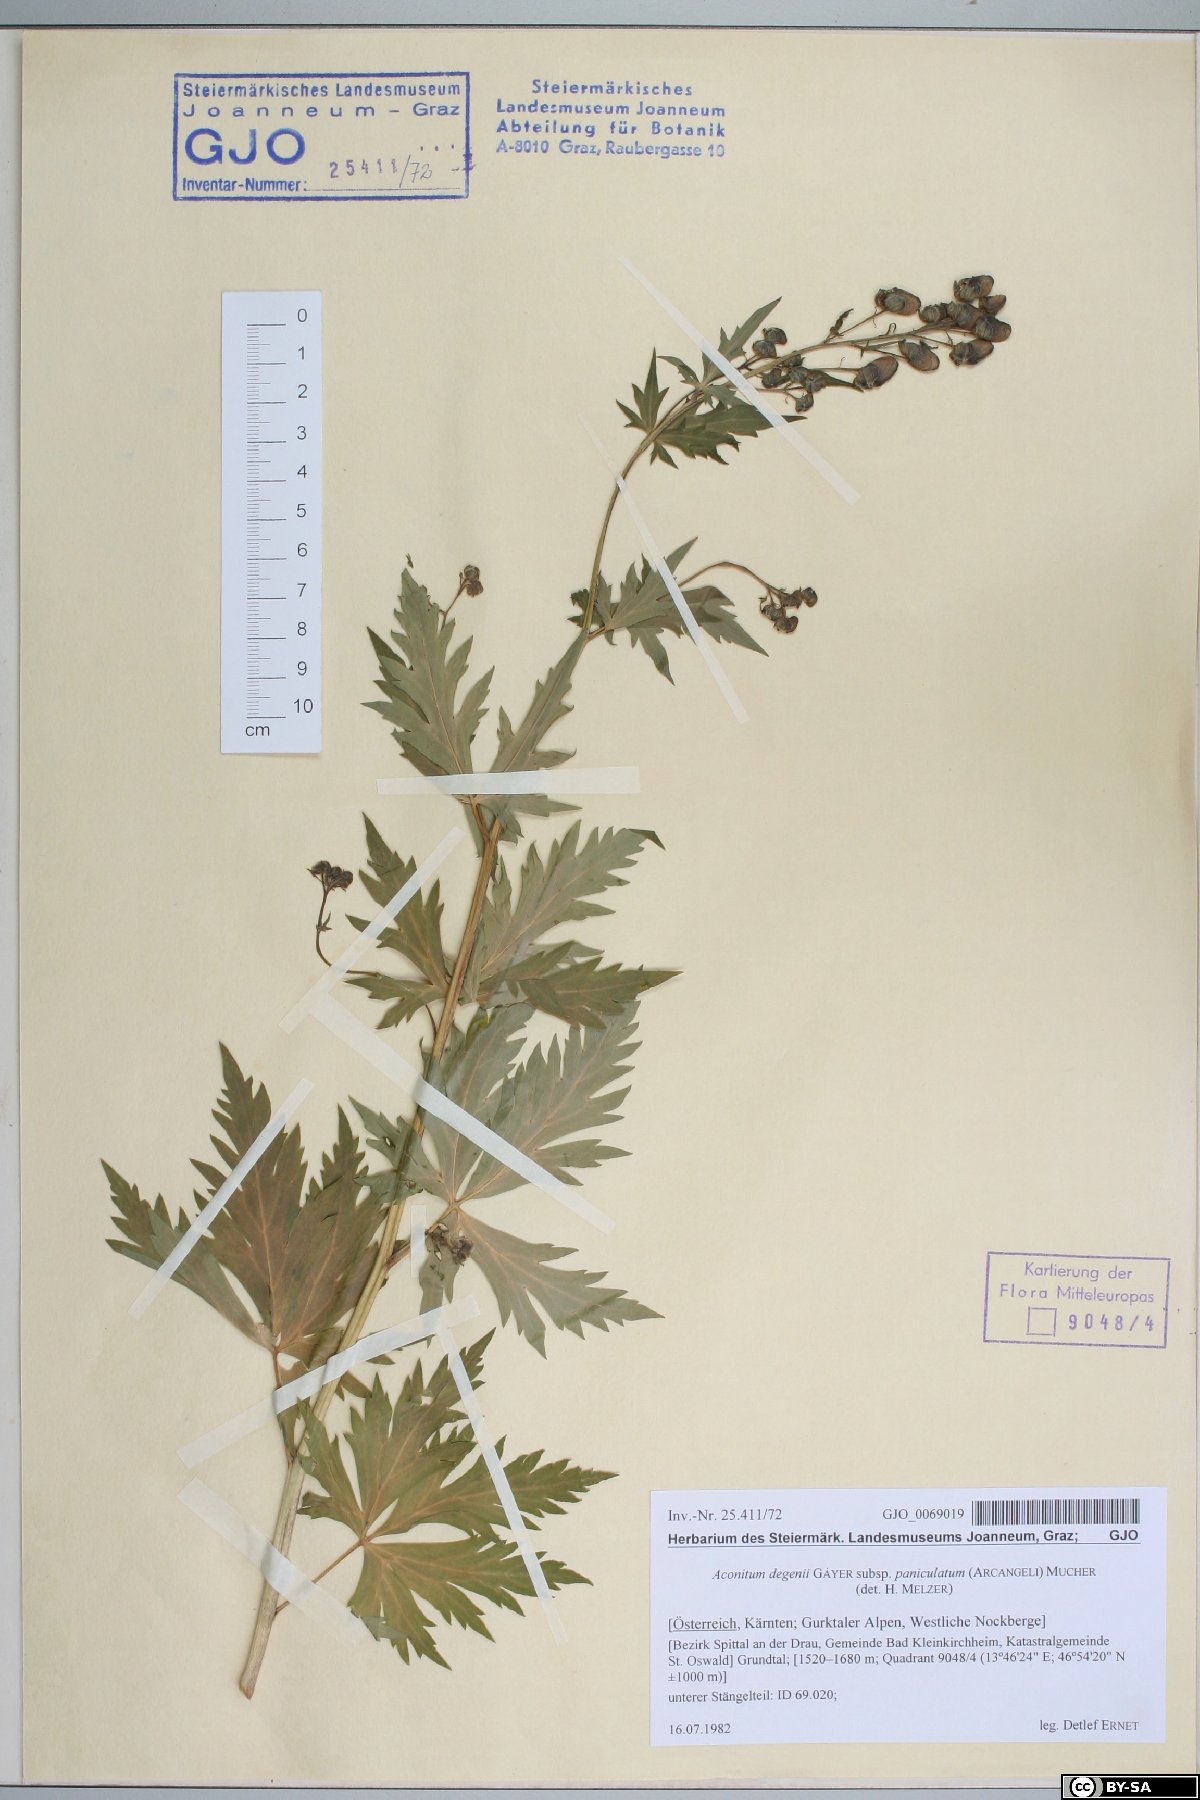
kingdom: Plantae
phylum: Tracheophyta
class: Magnoliopsida
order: Ranunculales
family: Ranunculaceae
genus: Aconitum
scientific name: Aconitum degenii
